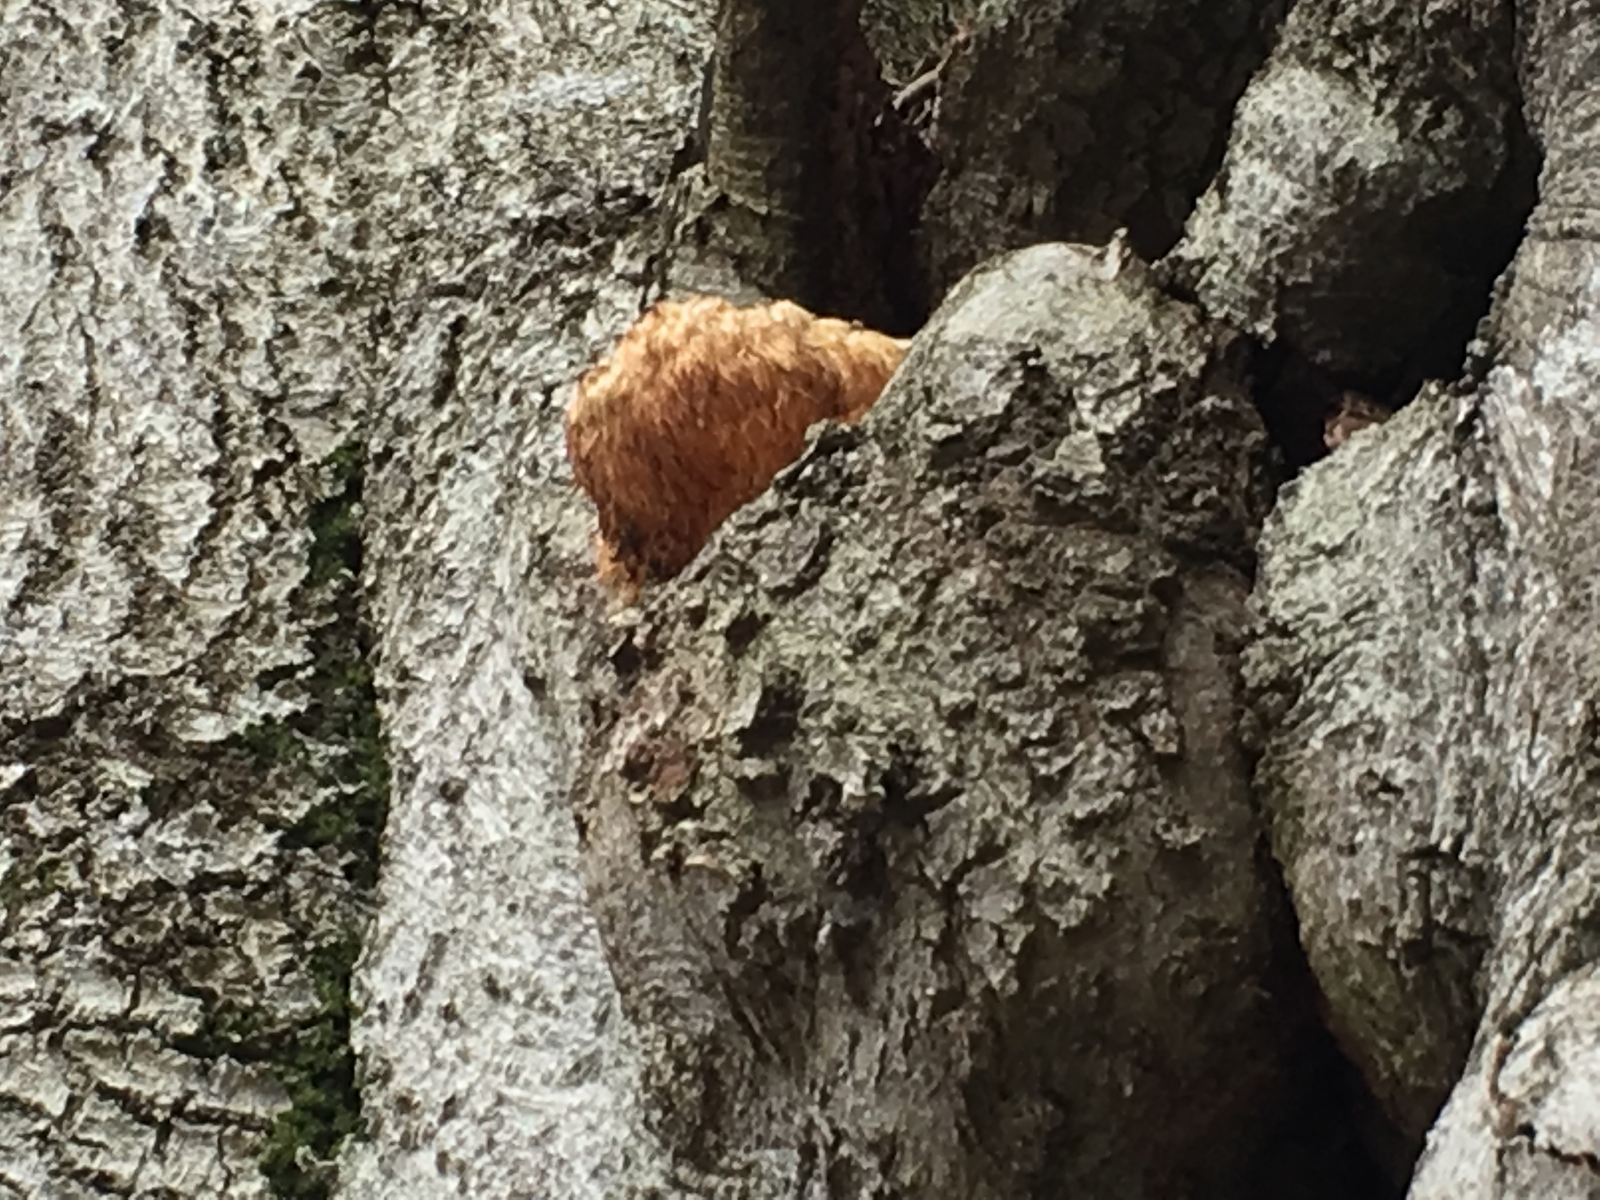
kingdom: Fungi
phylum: Basidiomycota
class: Agaricomycetes
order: Russulales
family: Hericiaceae
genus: Hericium
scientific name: Hericium erinaceus
